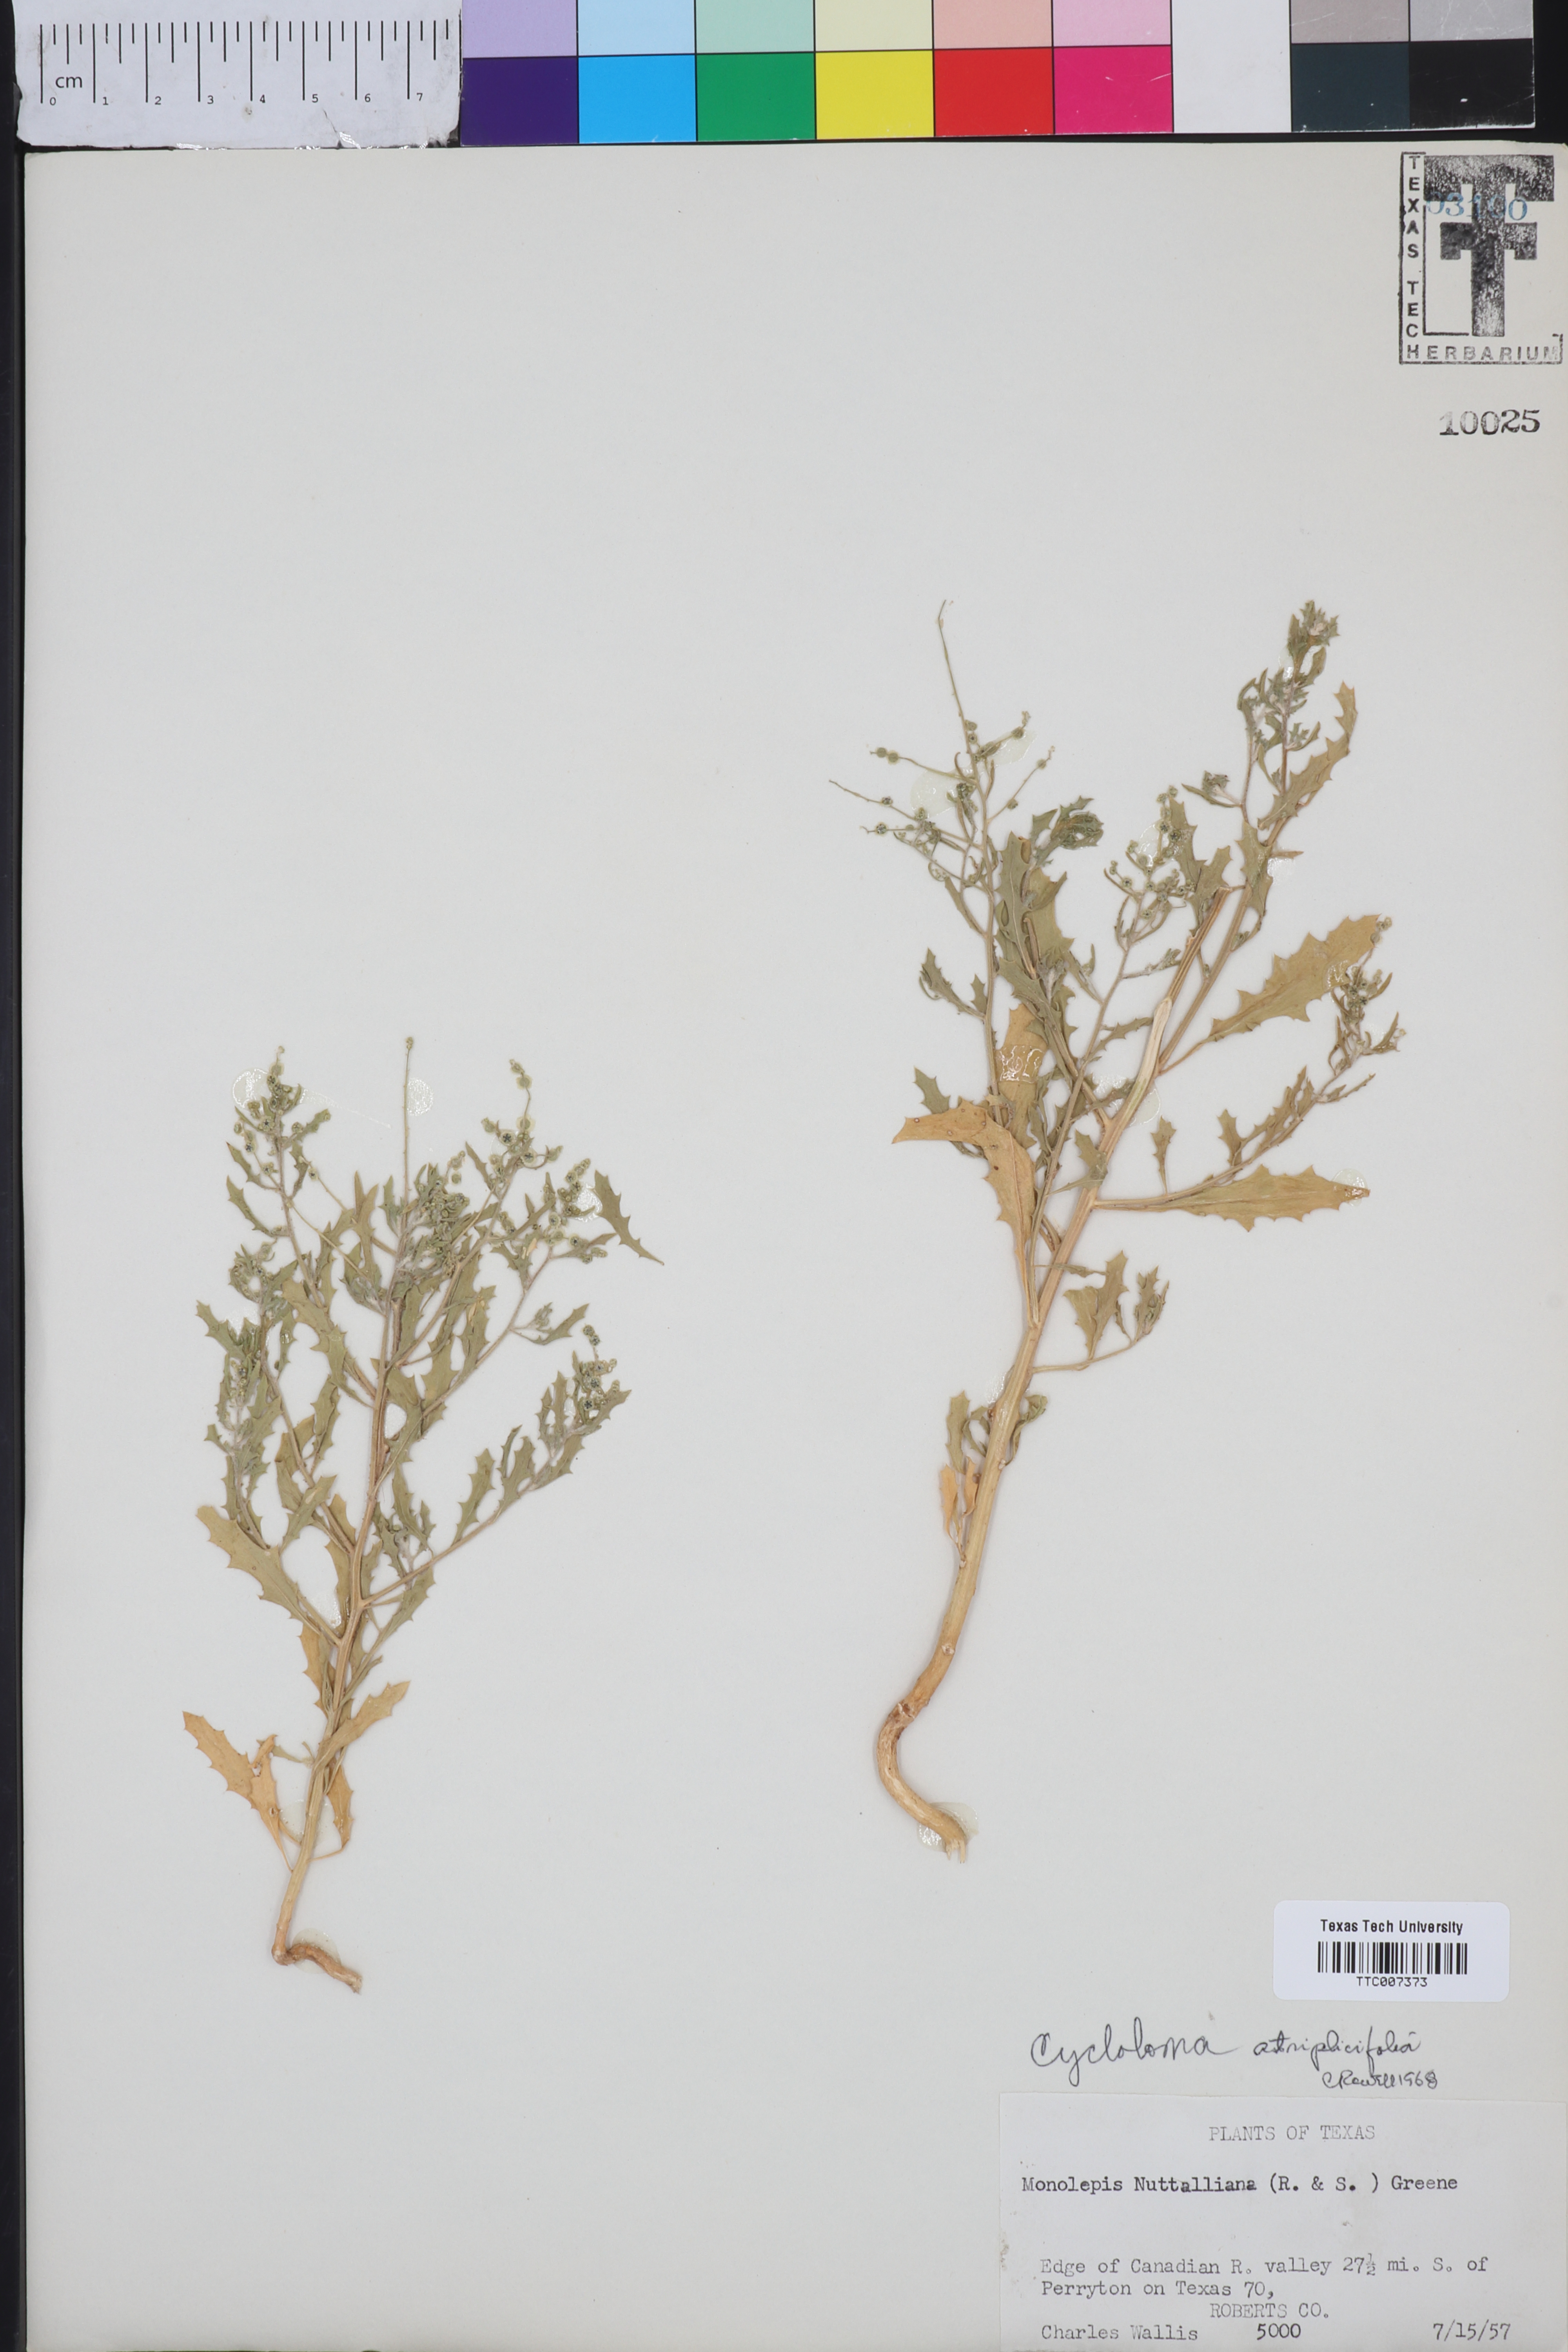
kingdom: Plantae
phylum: Tracheophyta
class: Magnoliopsida
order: Caryophyllales
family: Amaranthaceae
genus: Dysphania
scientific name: Dysphania atriplicifolia
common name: Plains tumbleweed
